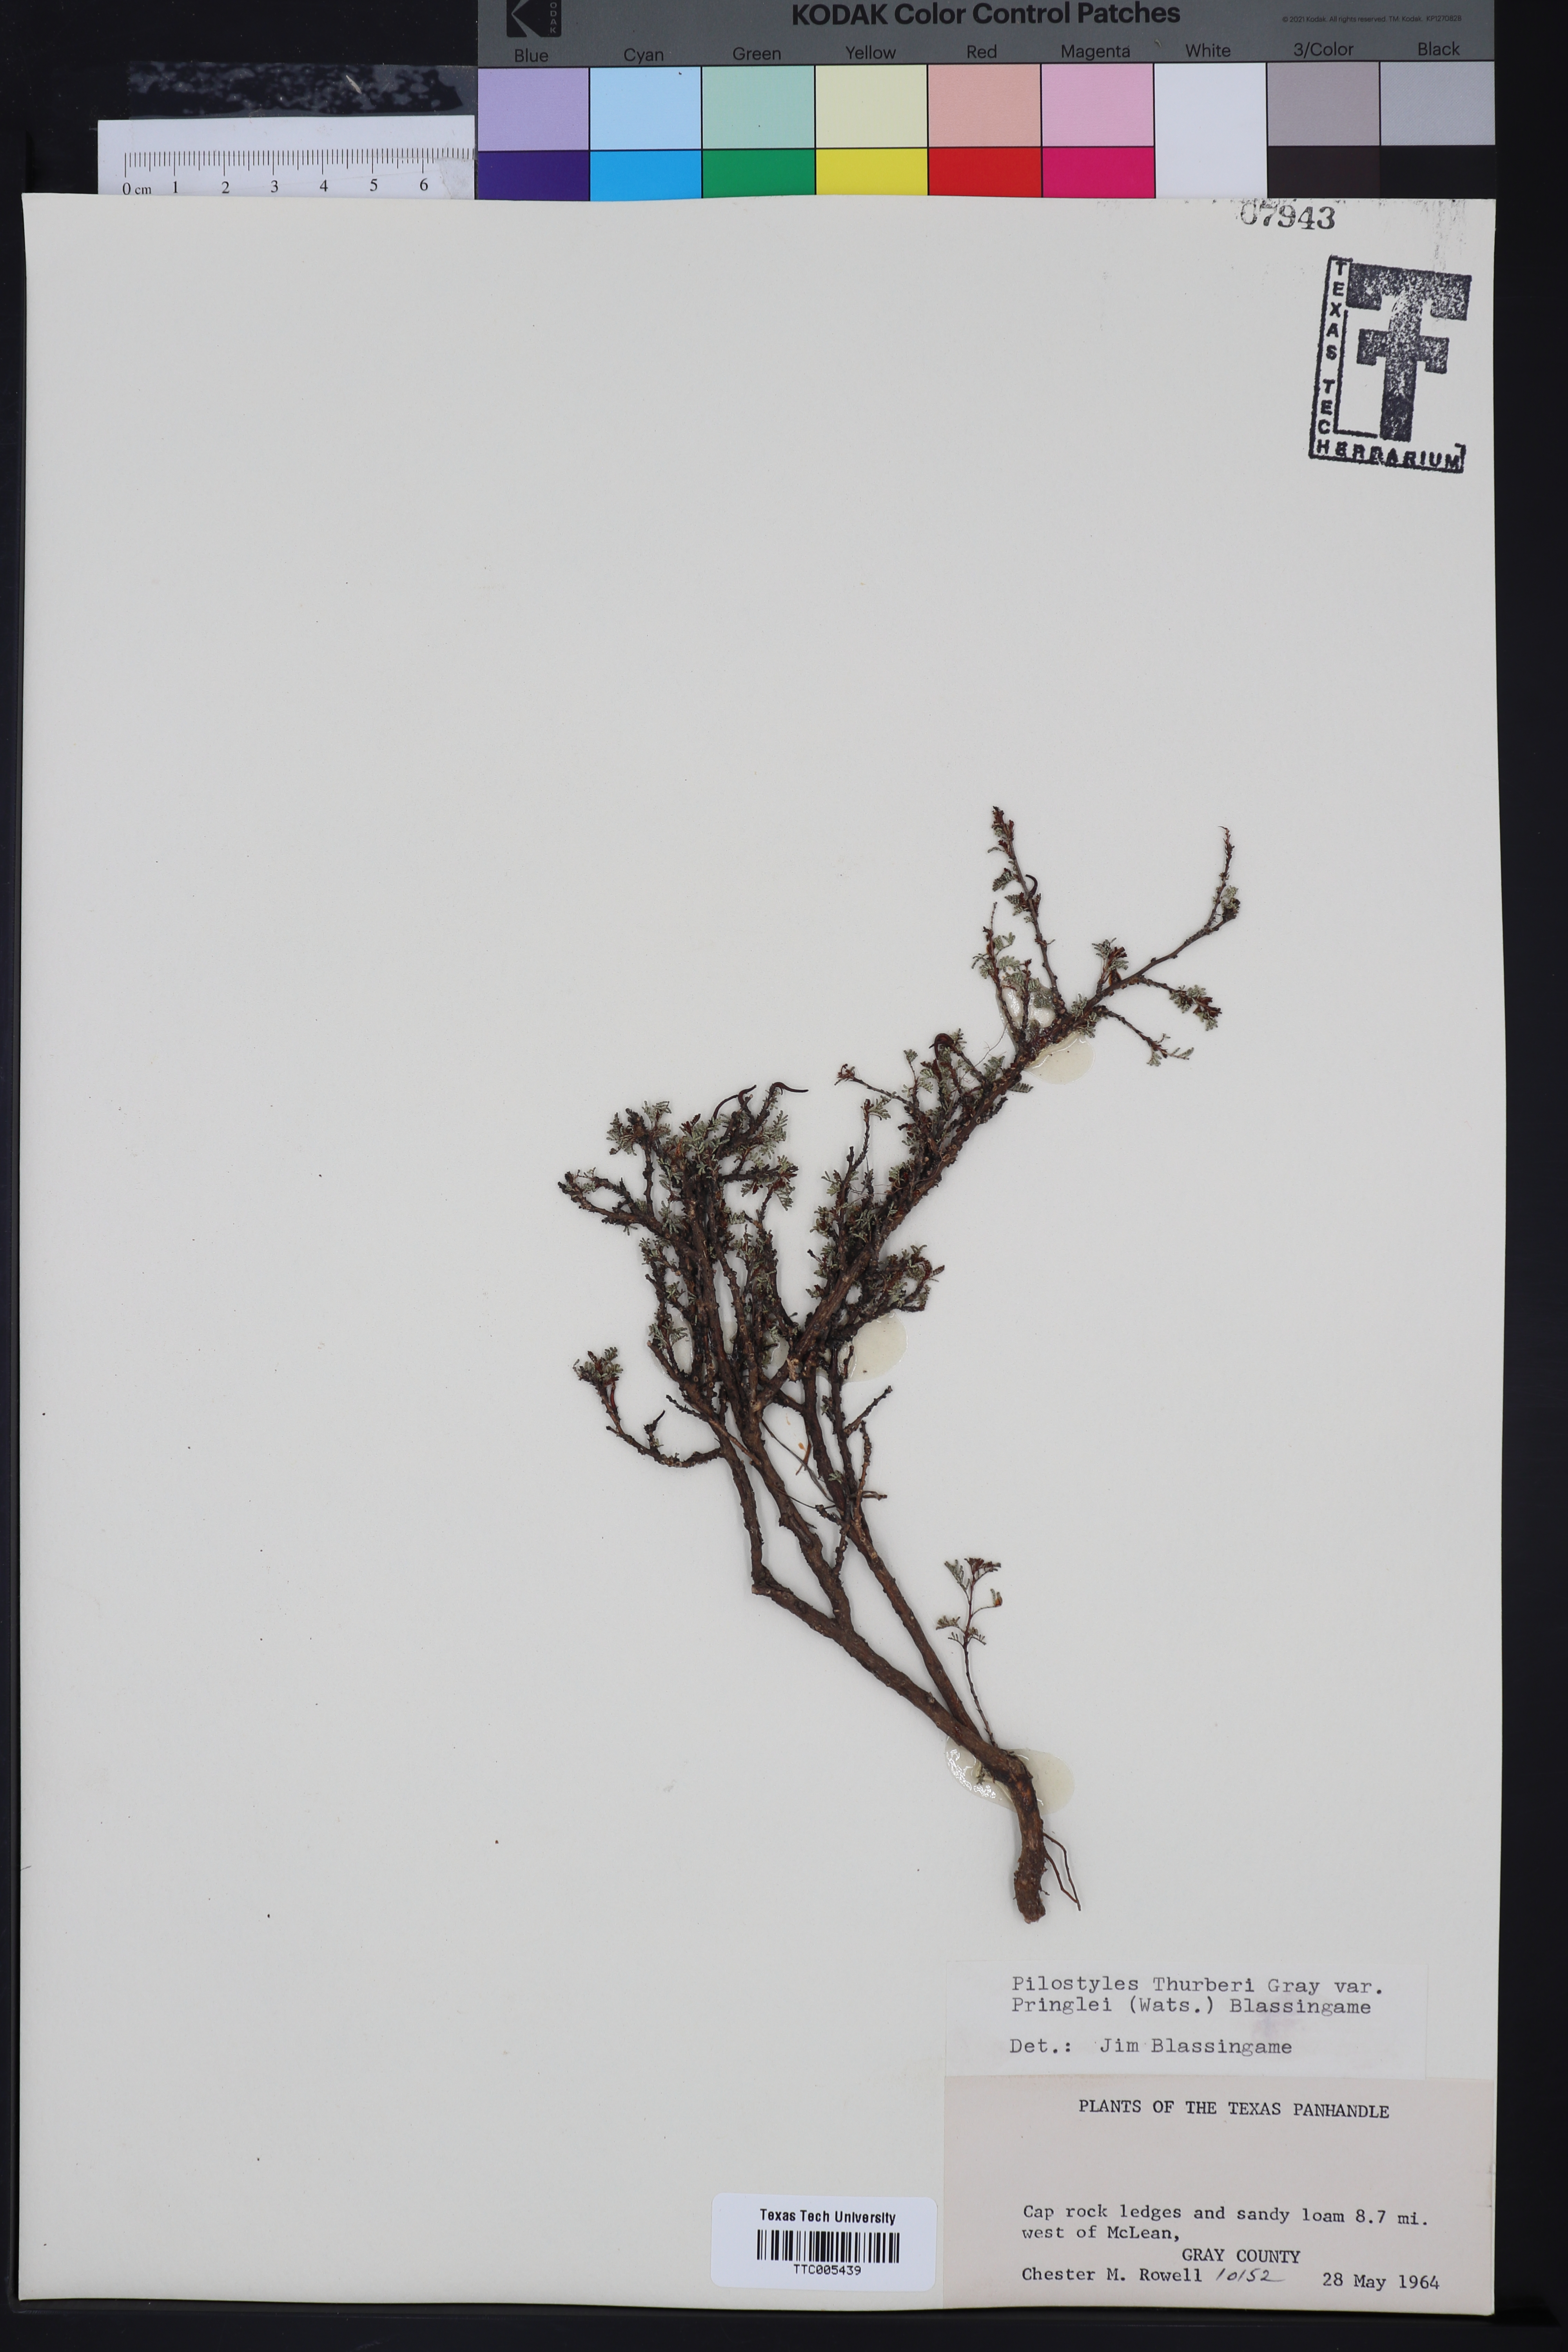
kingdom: Plantae
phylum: Tracheophyta
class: Magnoliopsida
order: Cucurbitales
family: Apodanthaceae
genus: Pilostyles
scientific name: Pilostyles thurberi
